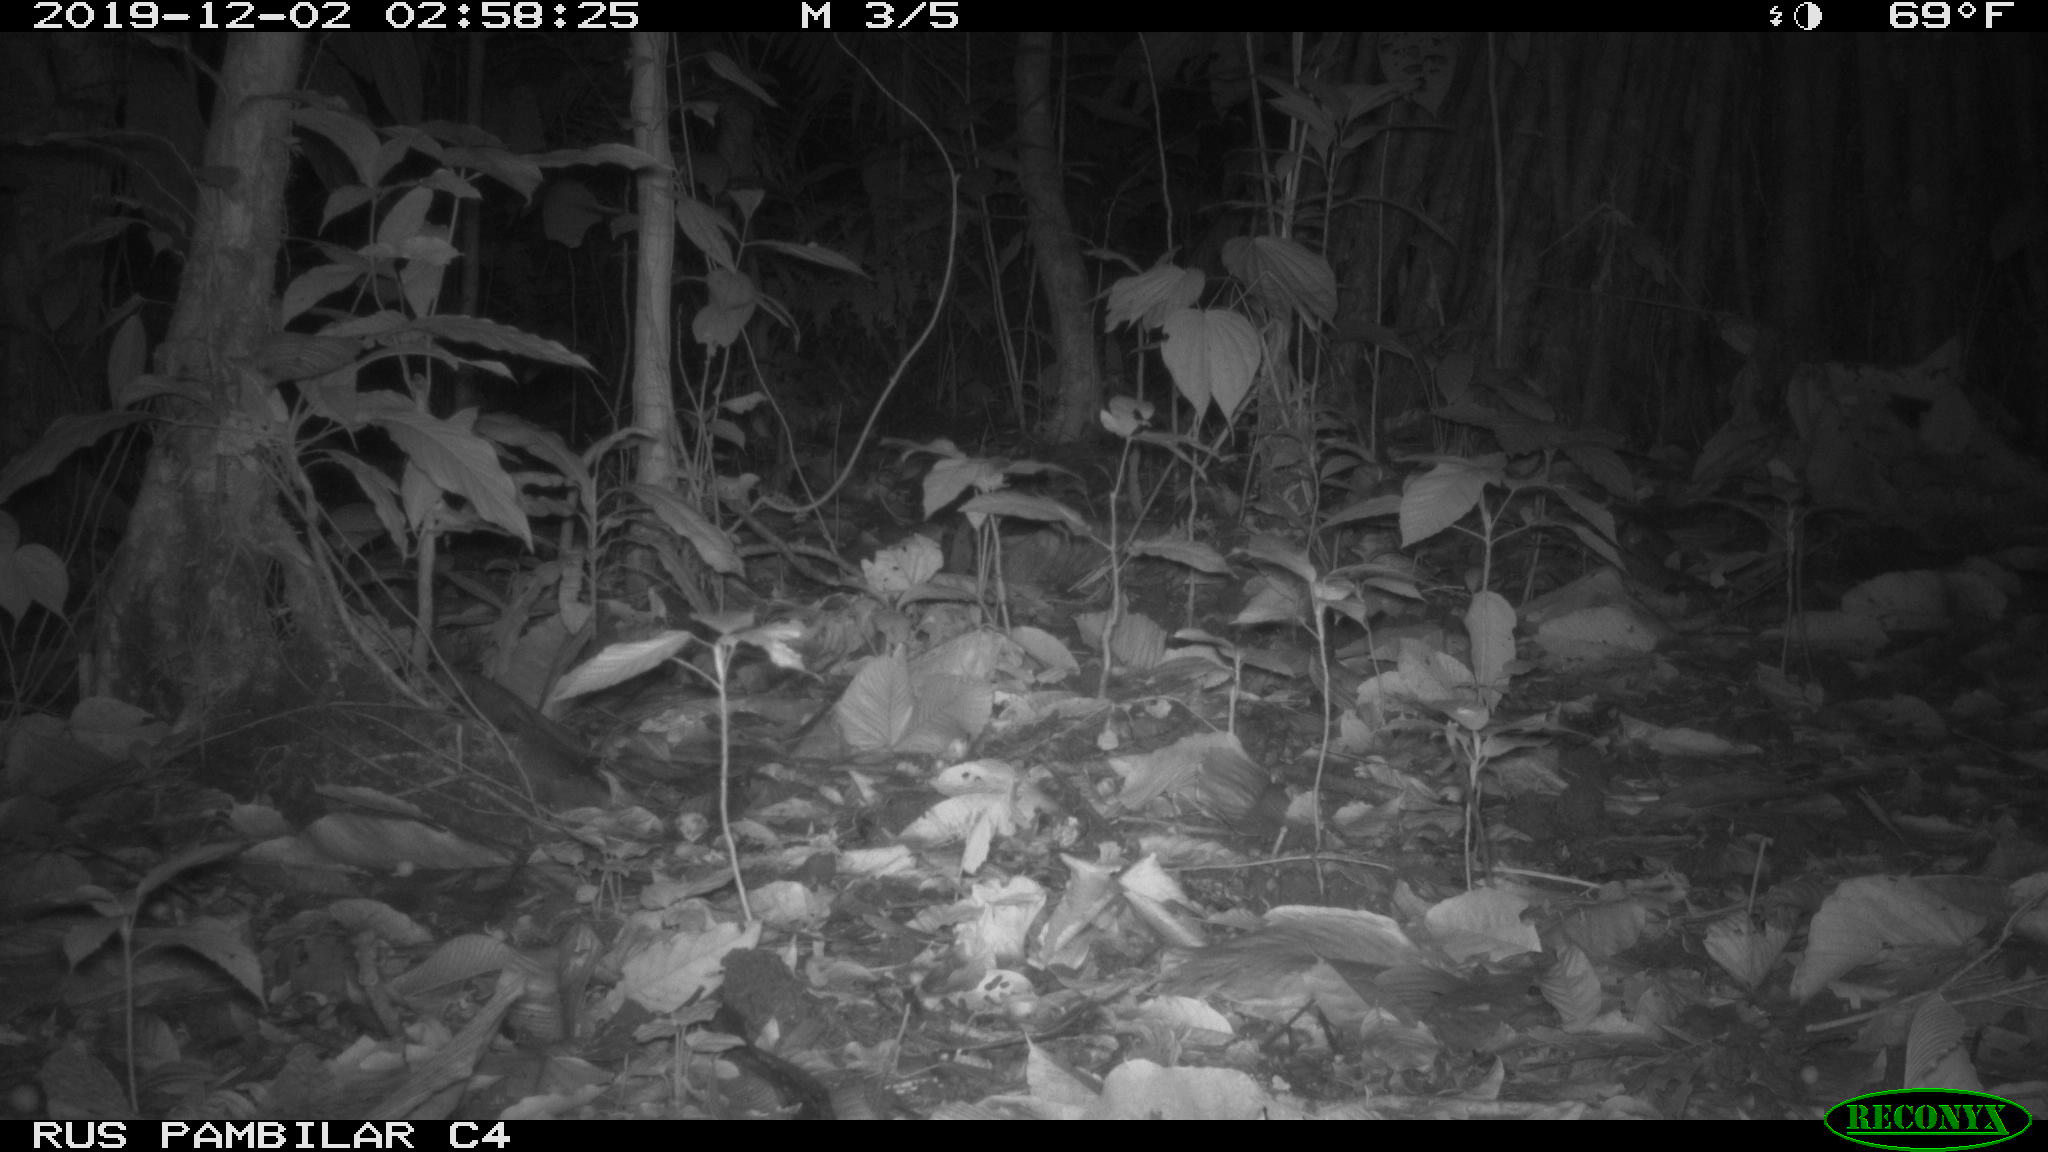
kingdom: Animalia
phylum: Chordata
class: Mammalia
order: Rodentia
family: Cuniculidae
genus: Cuniculus
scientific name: Cuniculus paca
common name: Lowland paca
